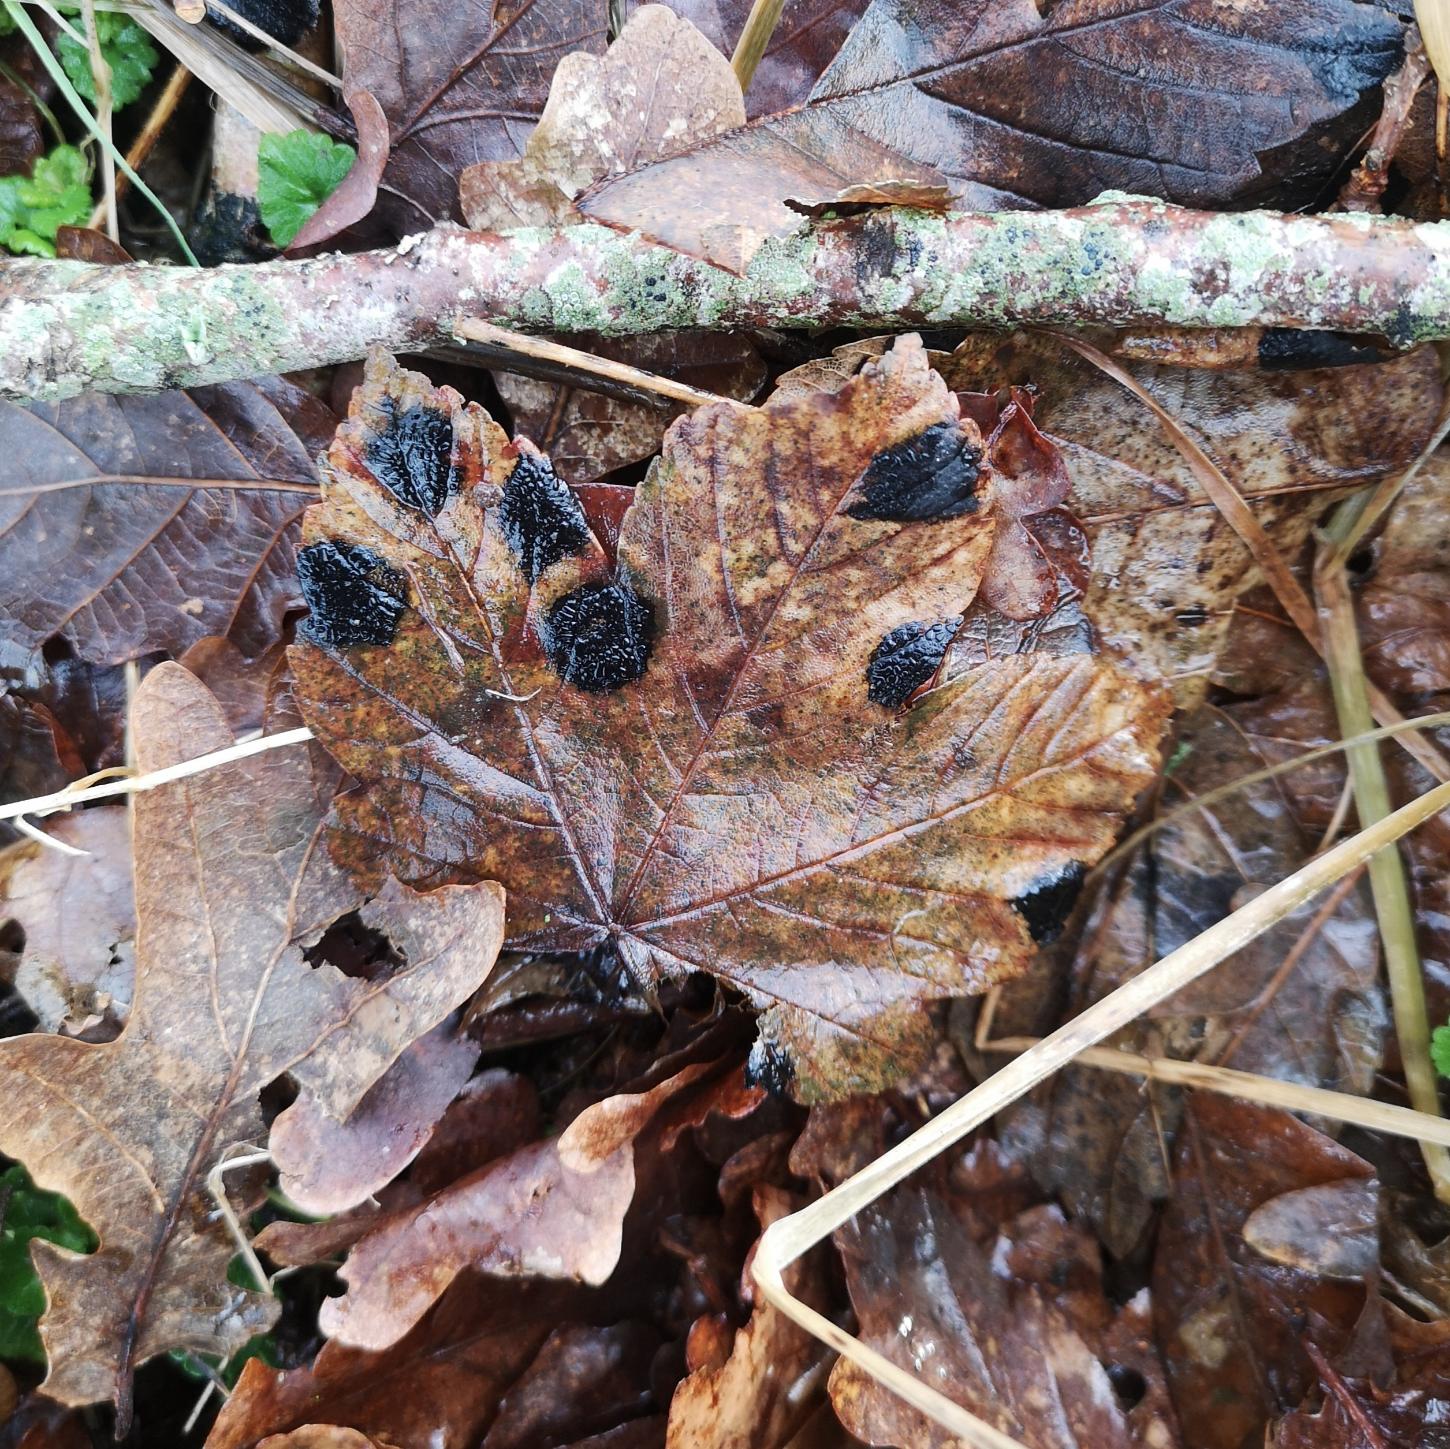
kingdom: Fungi
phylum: Ascomycota
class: Leotiomycetes
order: Rhytismatales
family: Rhytismataceae
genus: Rhytisma
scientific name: Rhytisma acerinum
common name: Ahorn-rynkeplet
